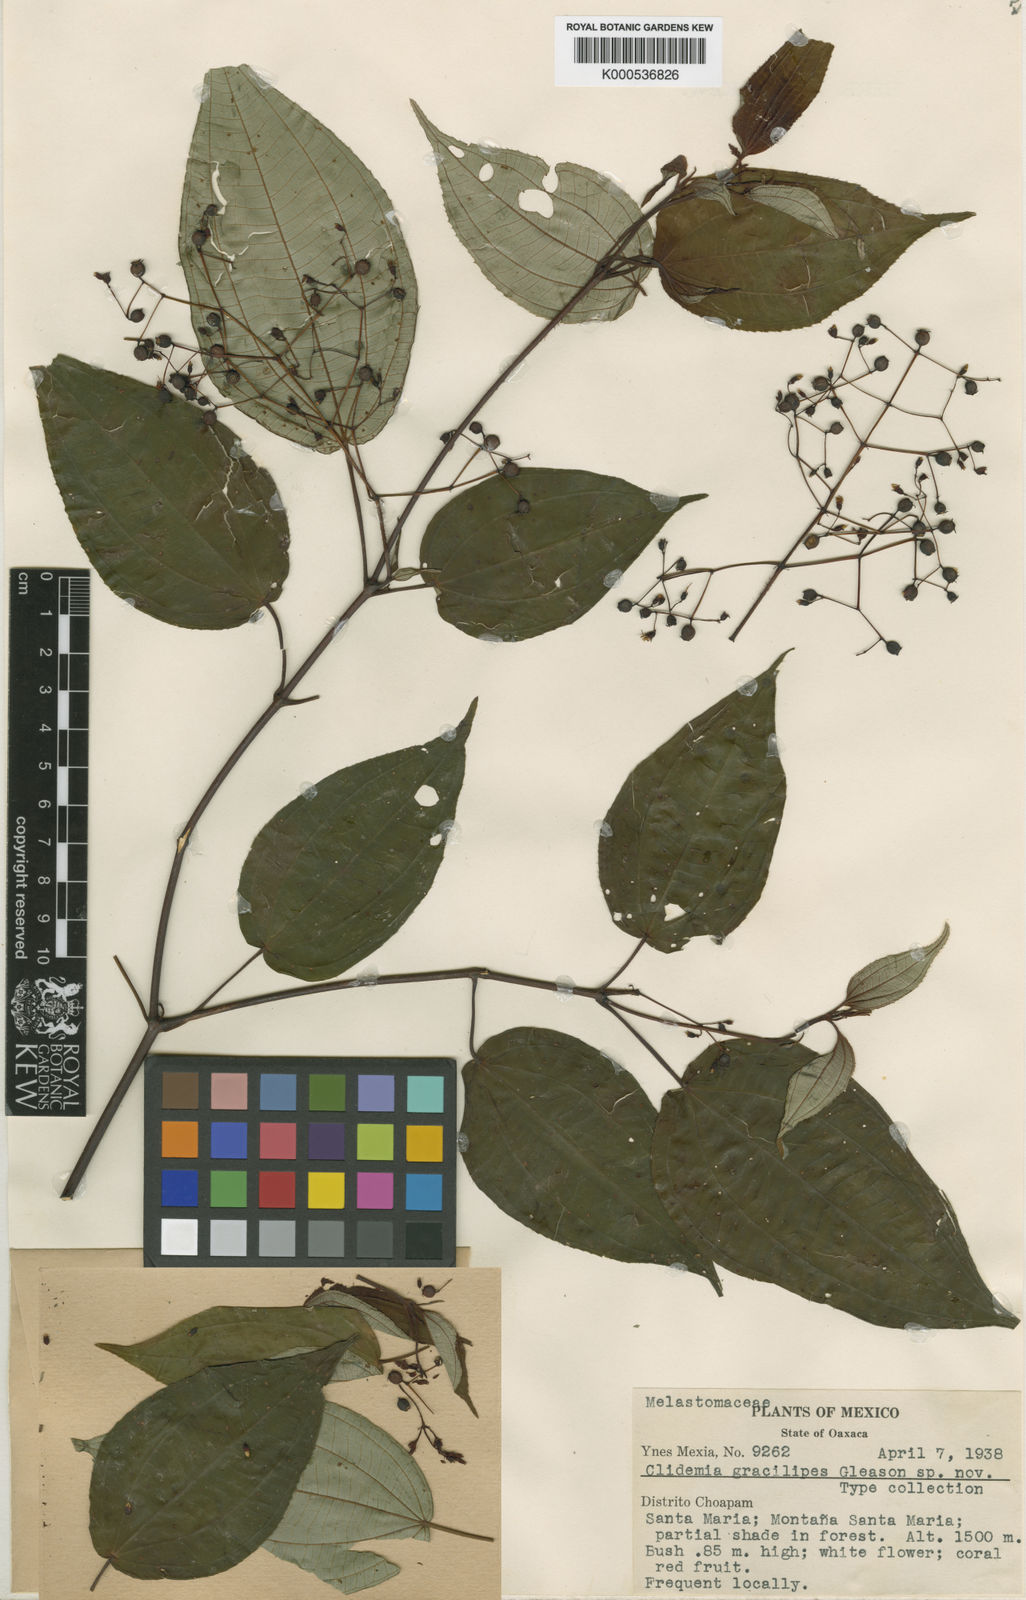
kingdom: Plantae
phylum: Tracheophyta
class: Magnoliopsida
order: Myrtales
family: Melastomataceae
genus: Miconia
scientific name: Miconia gracilipes
